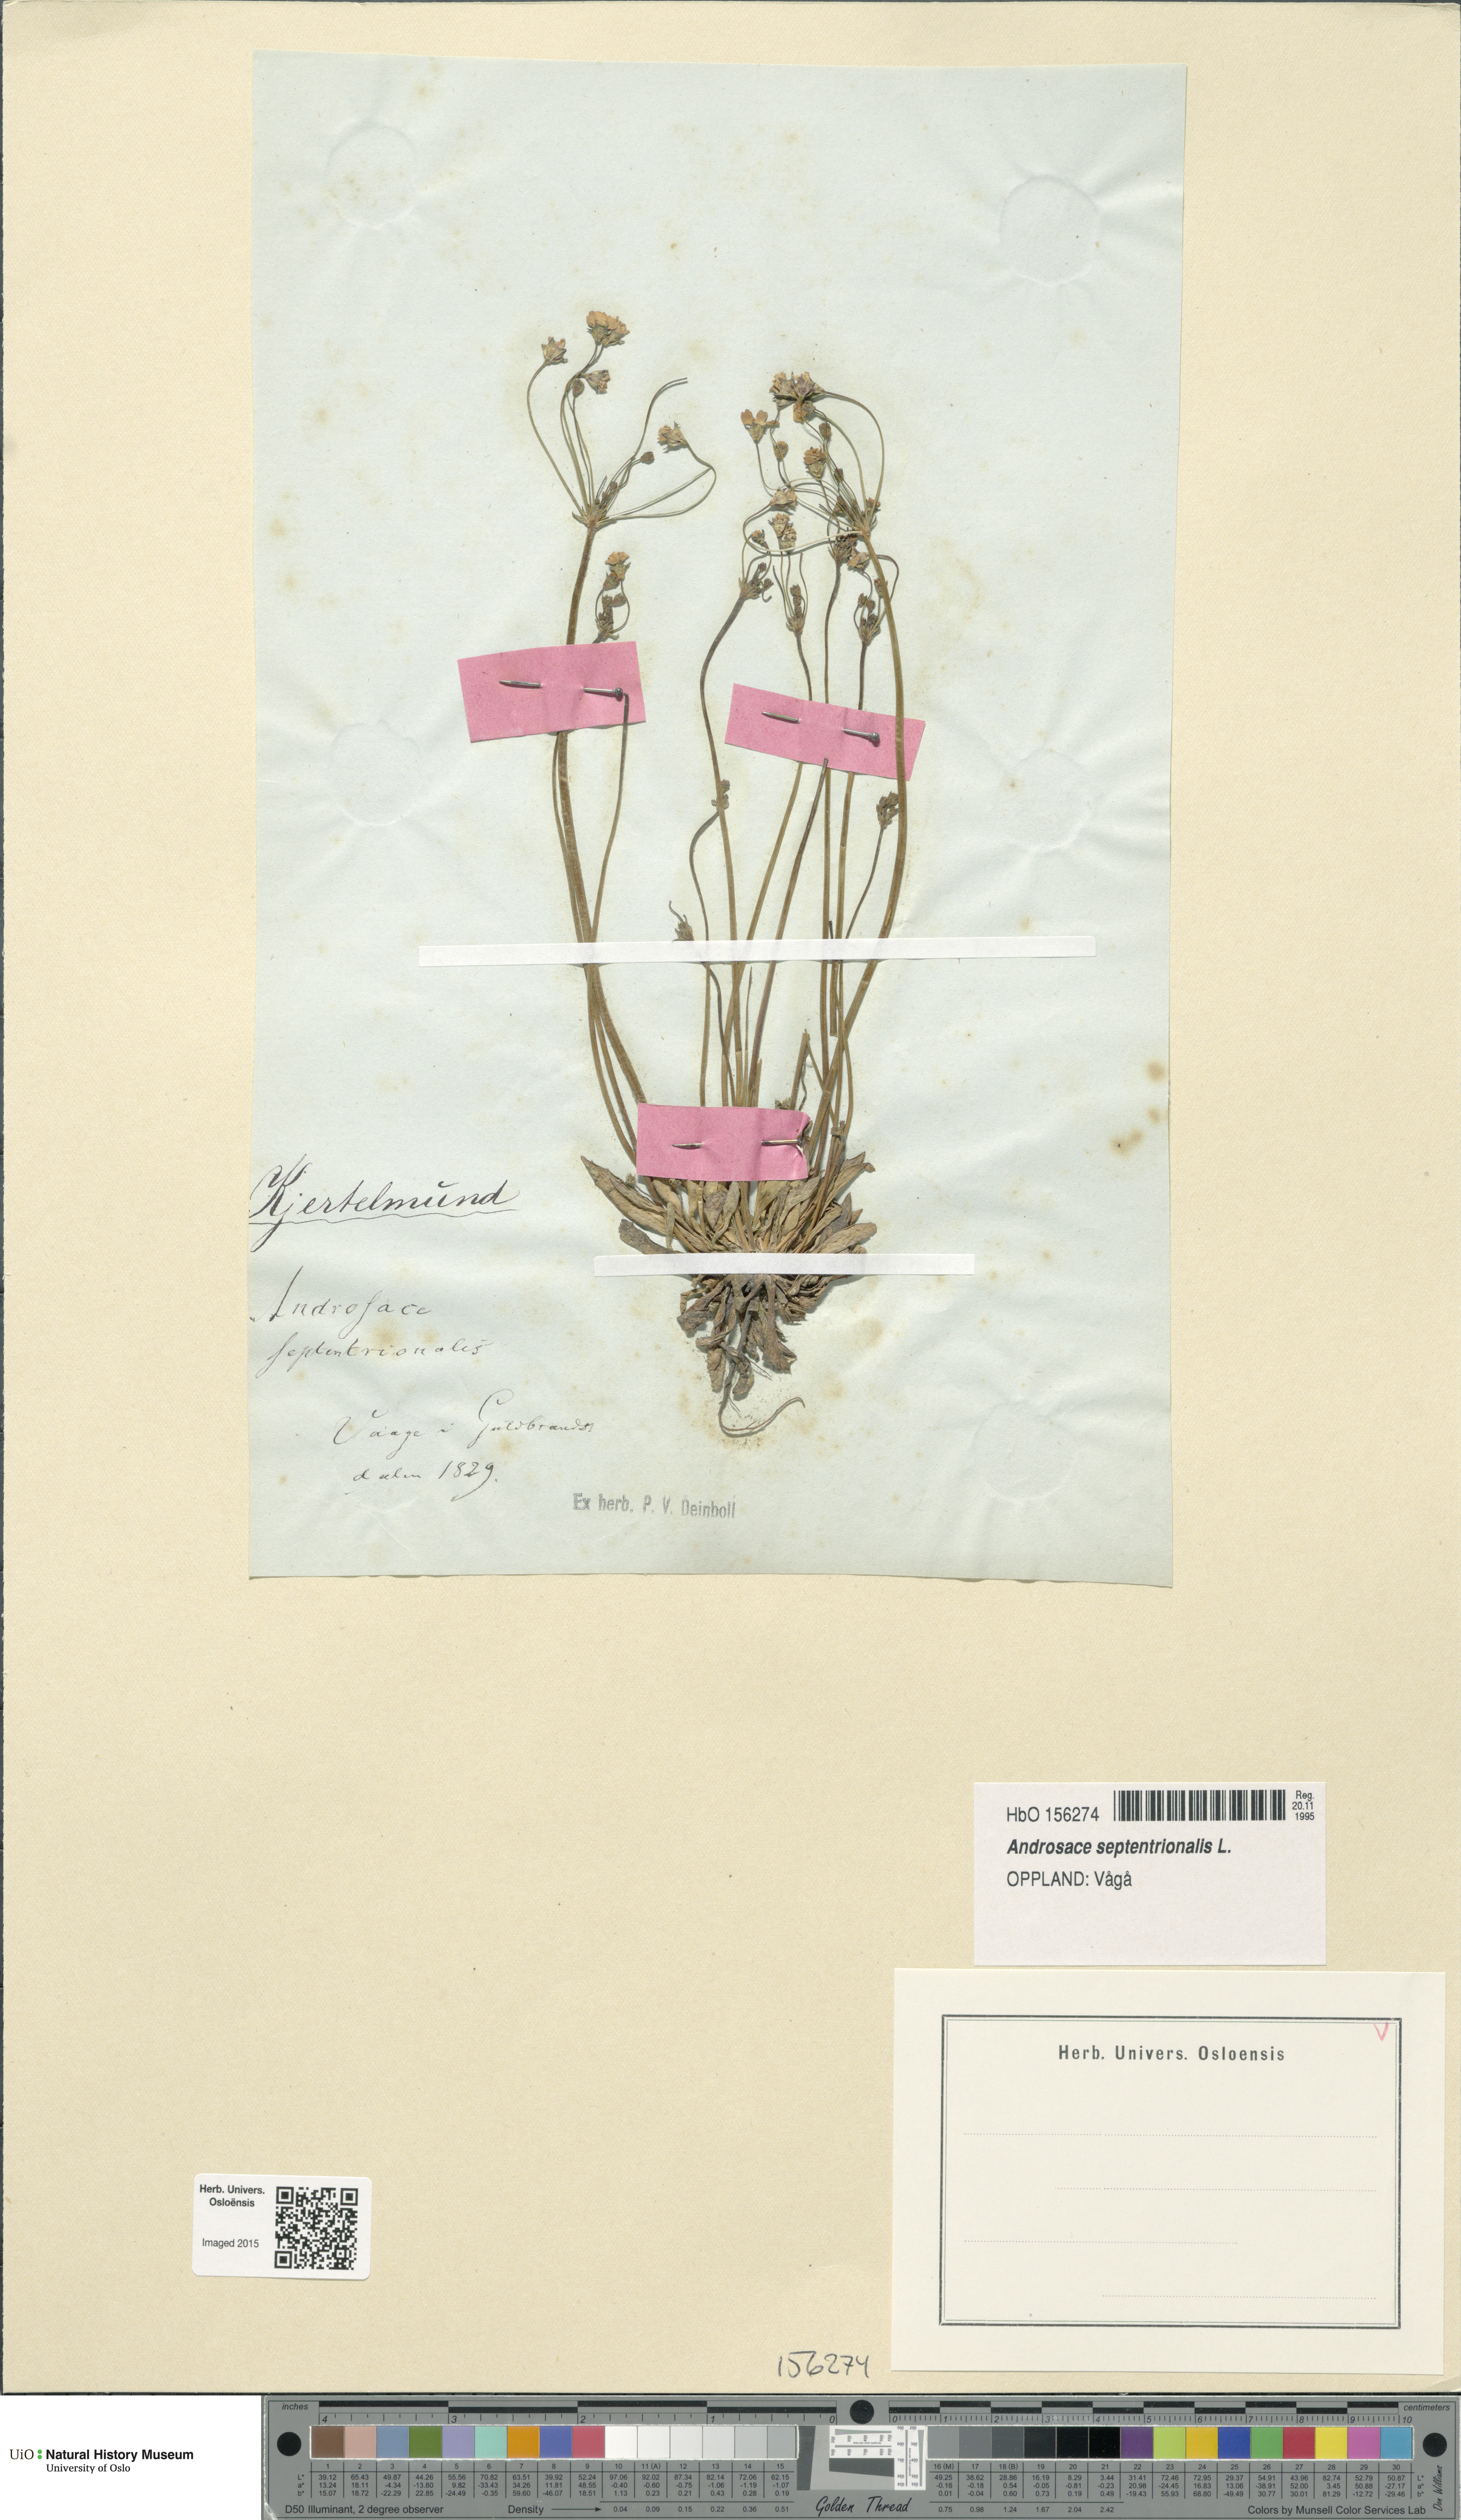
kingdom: Plantae
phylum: Tracheophyta
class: Magnoliopsida
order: Ericales
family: Primulaceae
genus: Androsace
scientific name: Androsace septentrionalis
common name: Hairy northern fairy-candelabra
